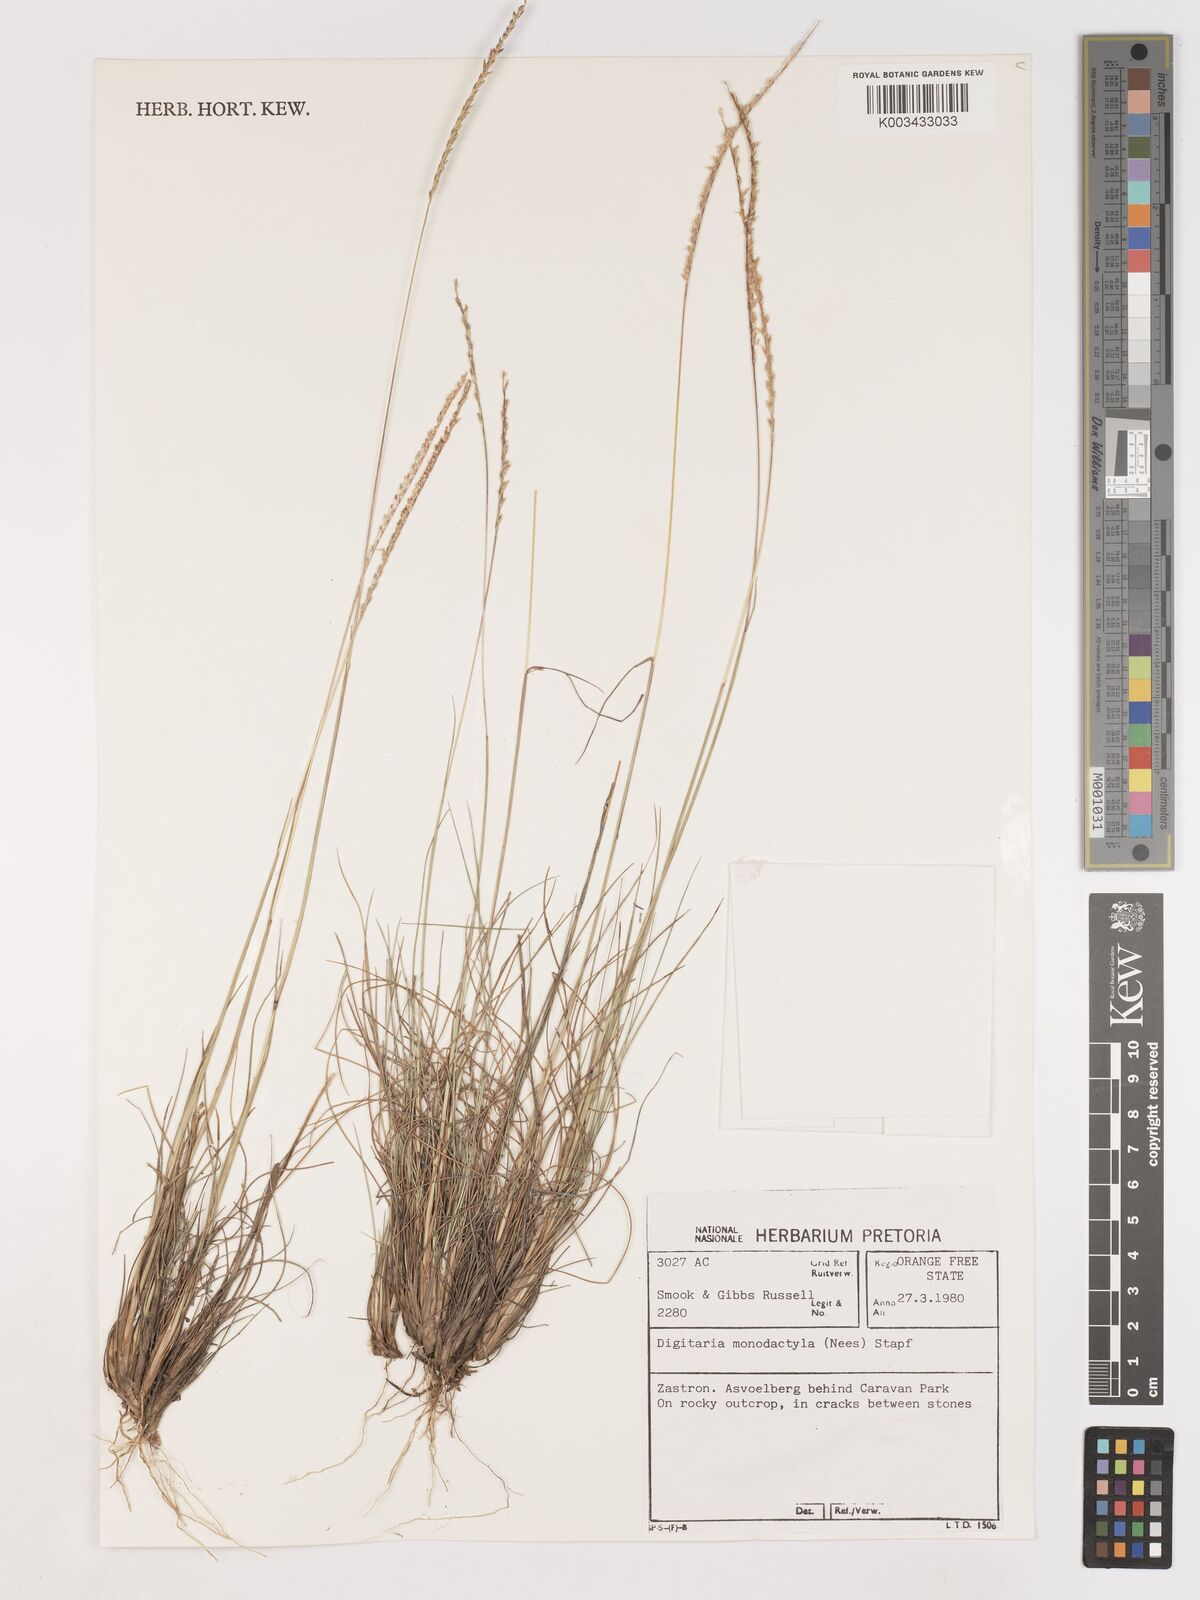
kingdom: Plantae
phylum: Tracheophyta
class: Liliopsida
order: Poales
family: Poaceae
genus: Digitaria
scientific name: Digitaria monodactyla
